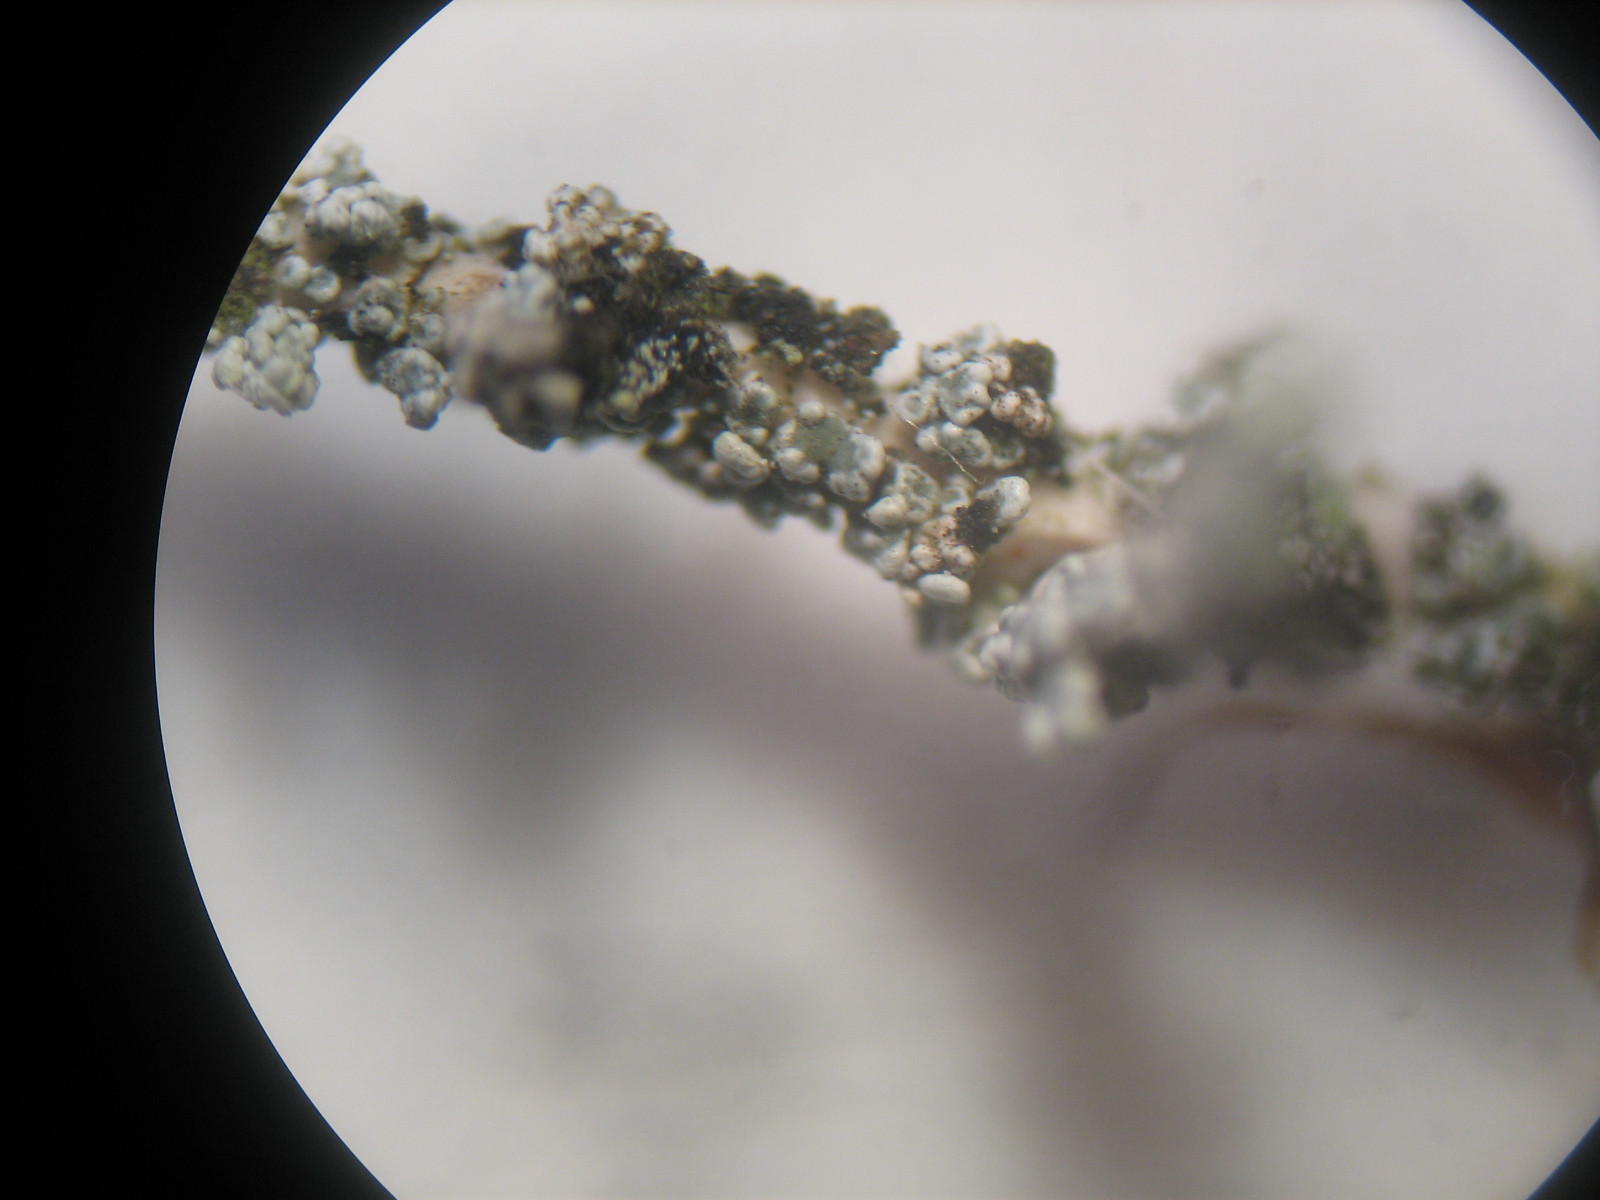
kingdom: Fungi
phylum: Ascomycota
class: Lecanoromycetes
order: Lecanorales
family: Stereocaulaceae
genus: Stereocaulon
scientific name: Stereocaulon vesuvianum
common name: skjold-korallav
